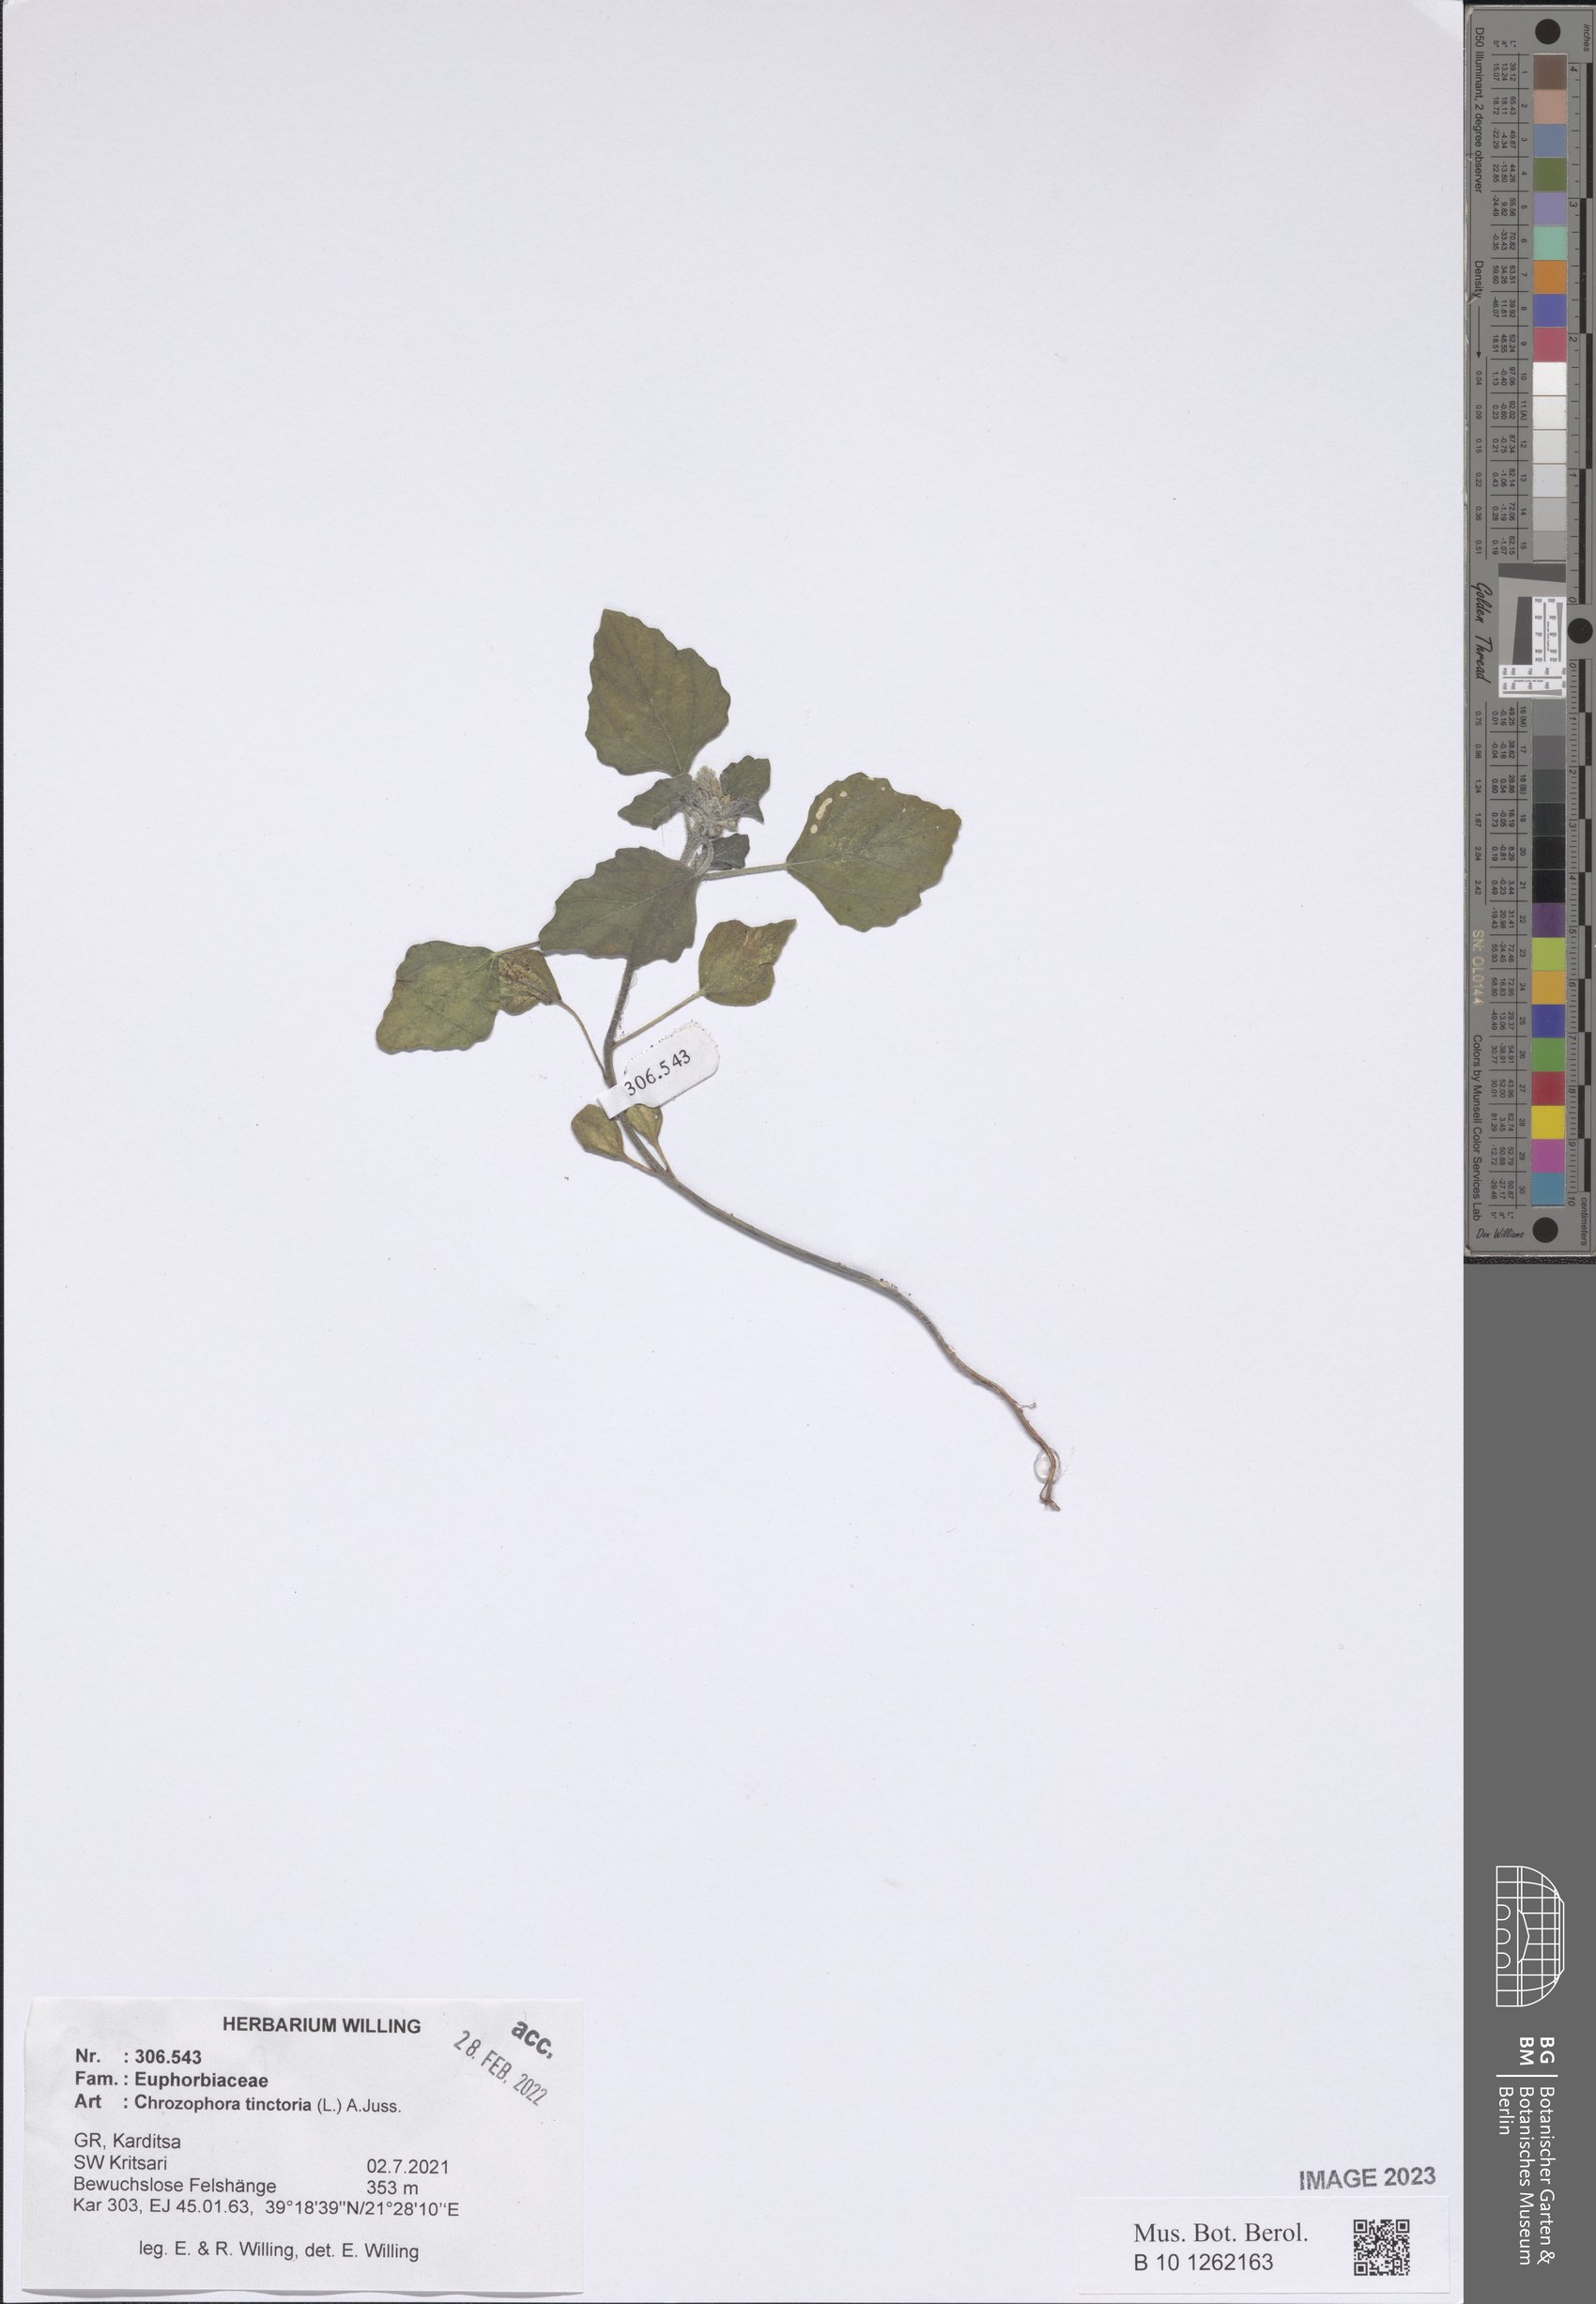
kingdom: Plantae
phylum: Tracheophyta
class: Magnoliopsida
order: Malpighiales
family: Euphorbiaceae
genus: Chrozophora
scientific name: Chrozophora tinctoria
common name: Dyer's litmus
